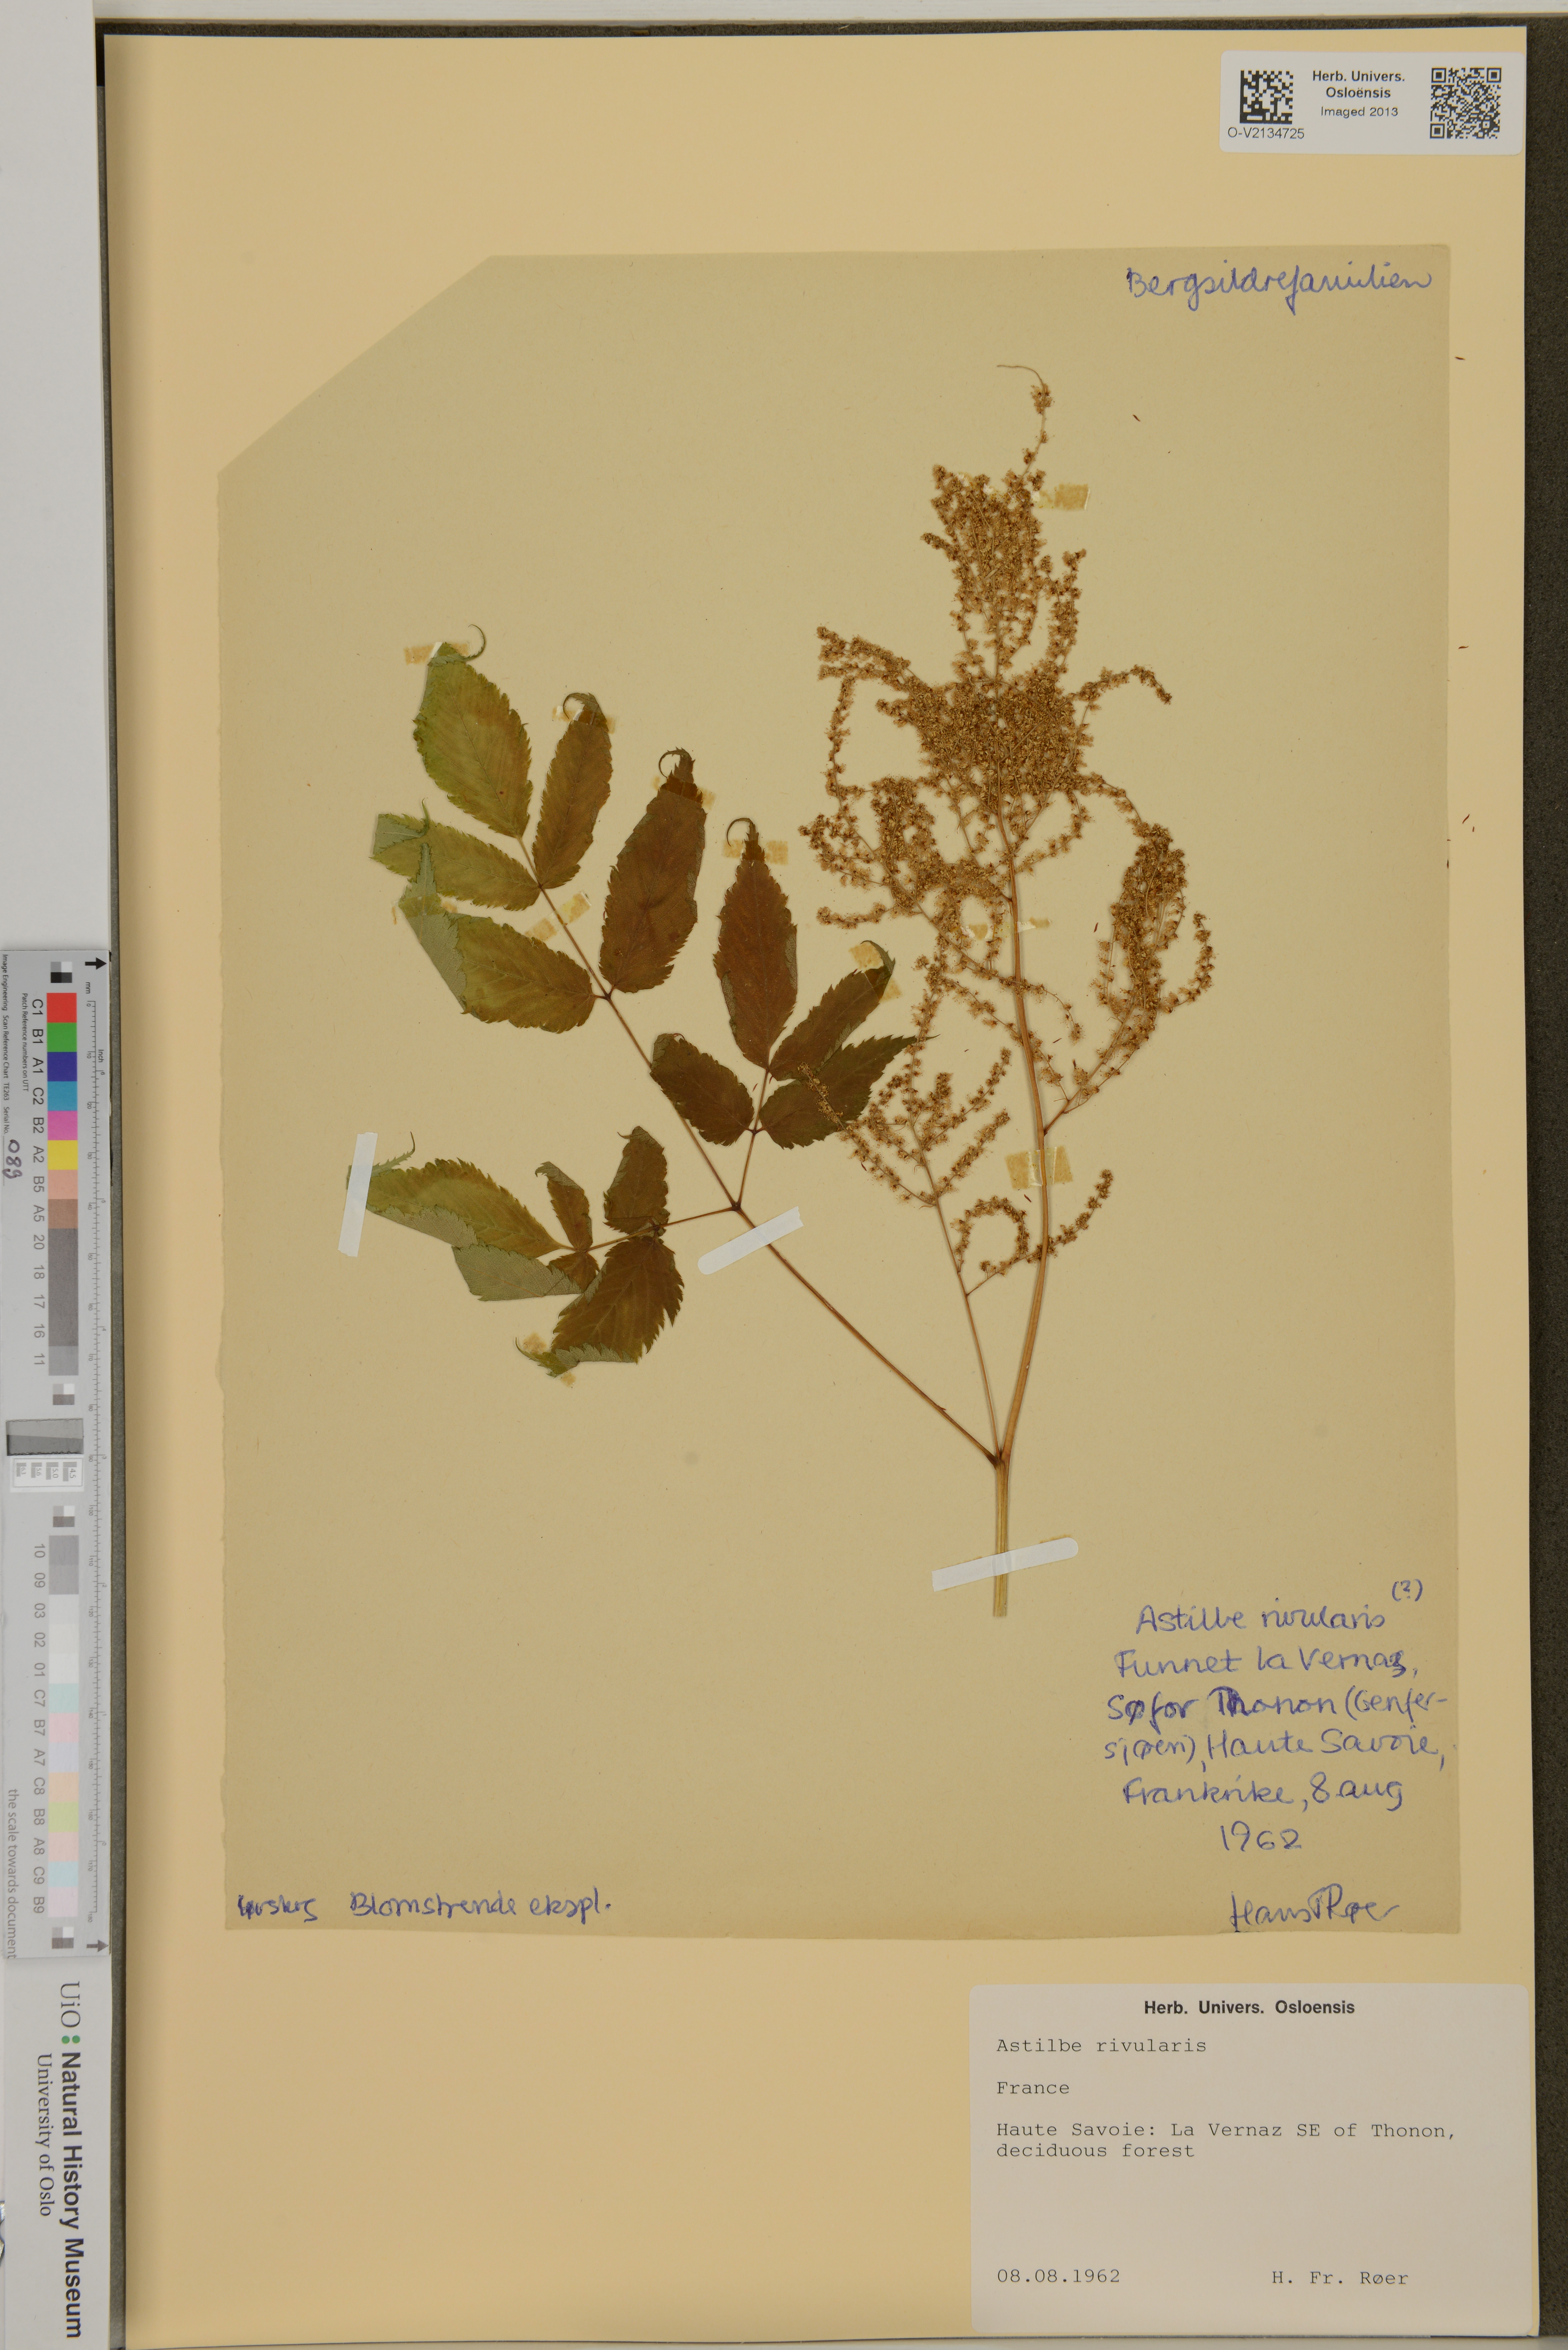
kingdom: Plantae
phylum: Tracheophyta
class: Magnoliopsida
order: Saxifragales
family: Saxifragaceae
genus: Astilbe
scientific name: Astilbe rivularis
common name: Tall false-buck's-beard
